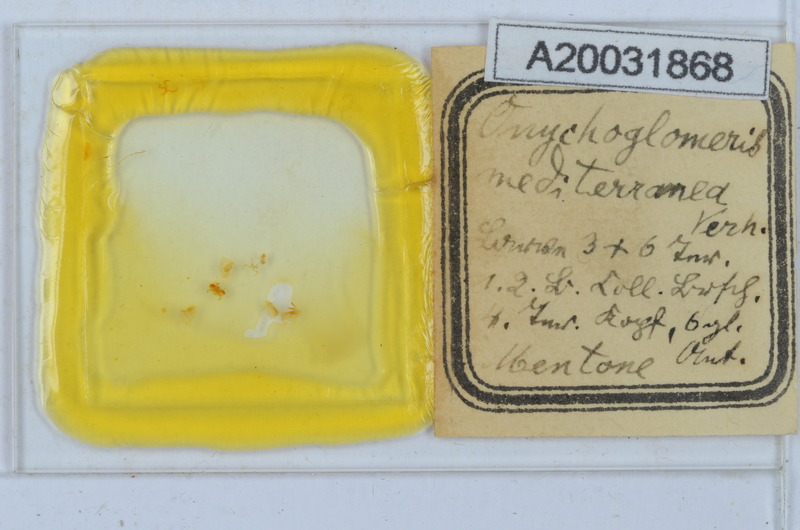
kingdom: Animalia
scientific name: Animalia
